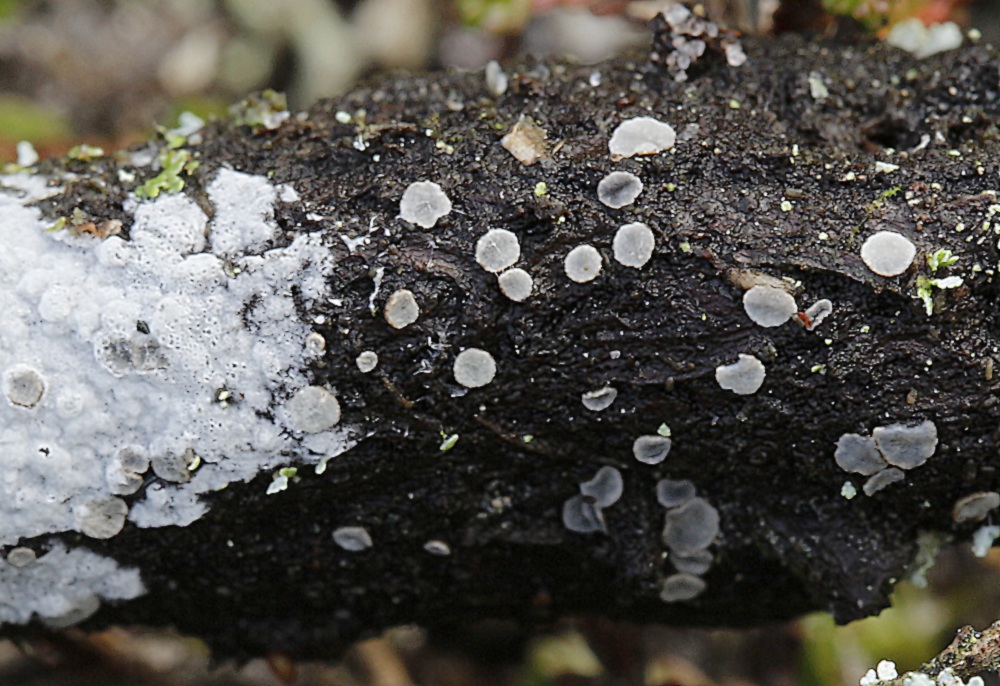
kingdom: Fungi
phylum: Ascomycota
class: Leotiomycetes
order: Helotiales
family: Dermateaceae
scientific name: Dermateaceae
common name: gråskivefamilien
